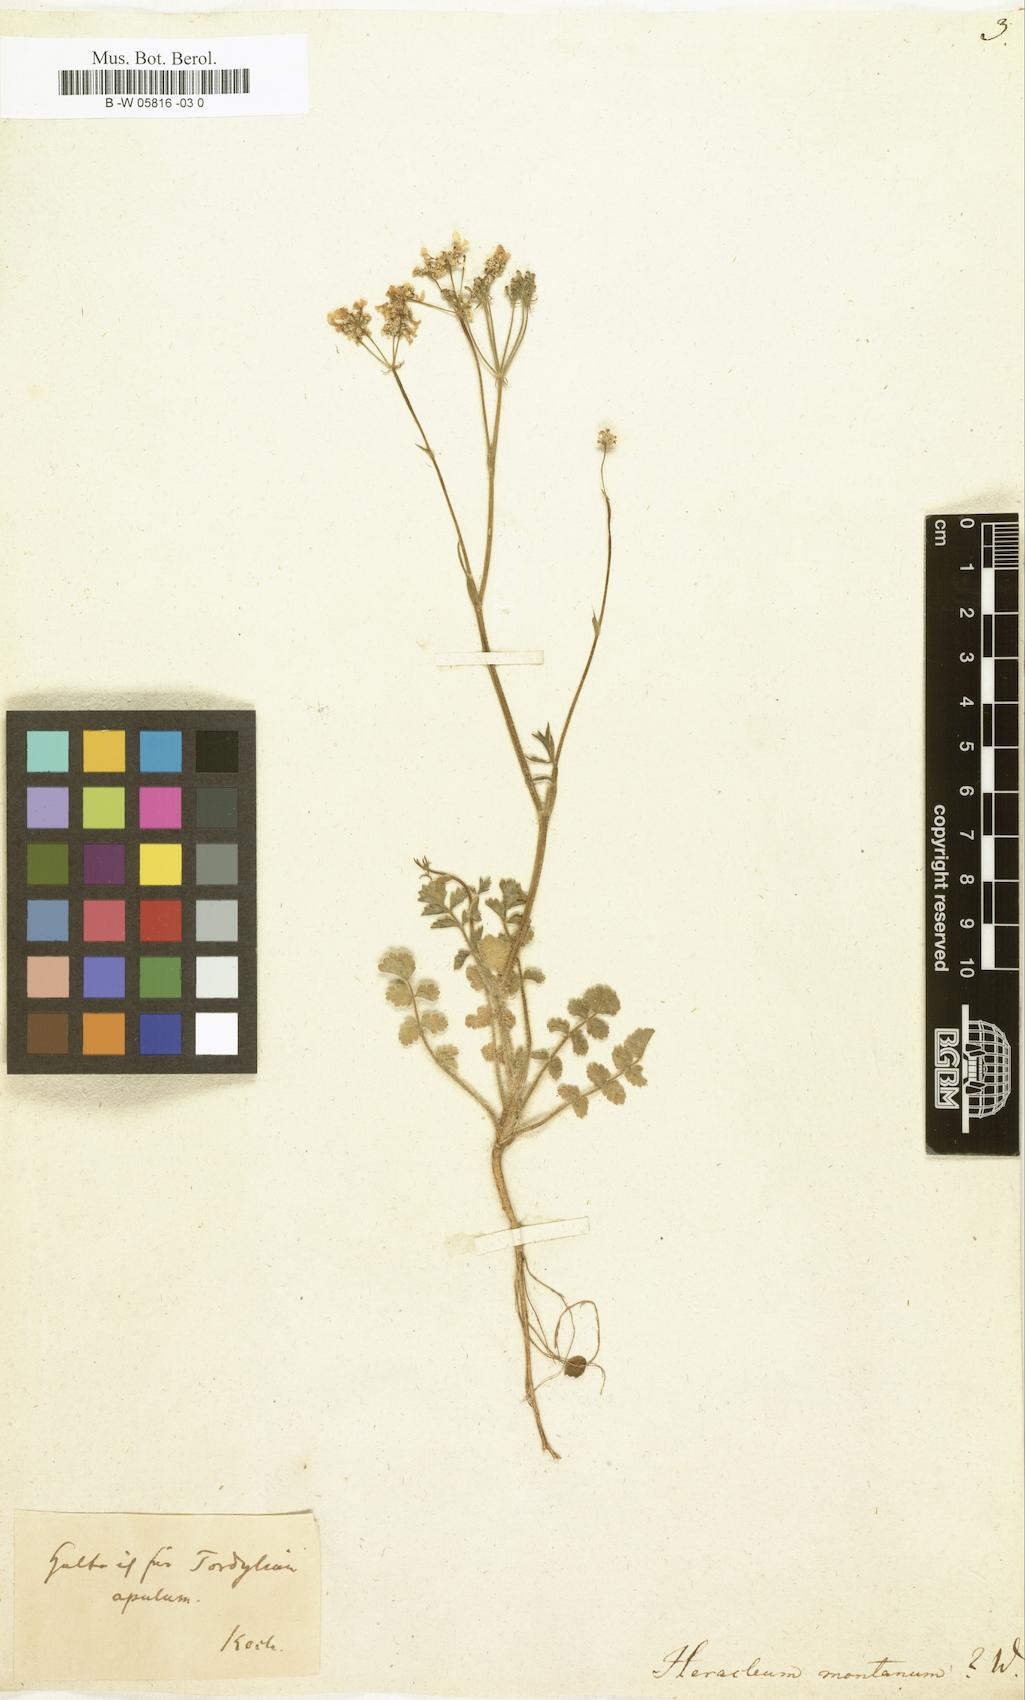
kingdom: Plantae
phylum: Tracheophyta
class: Magnoliopsida
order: Apiales
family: Apiaceae
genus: Heracleum
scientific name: Heracleum montanum
